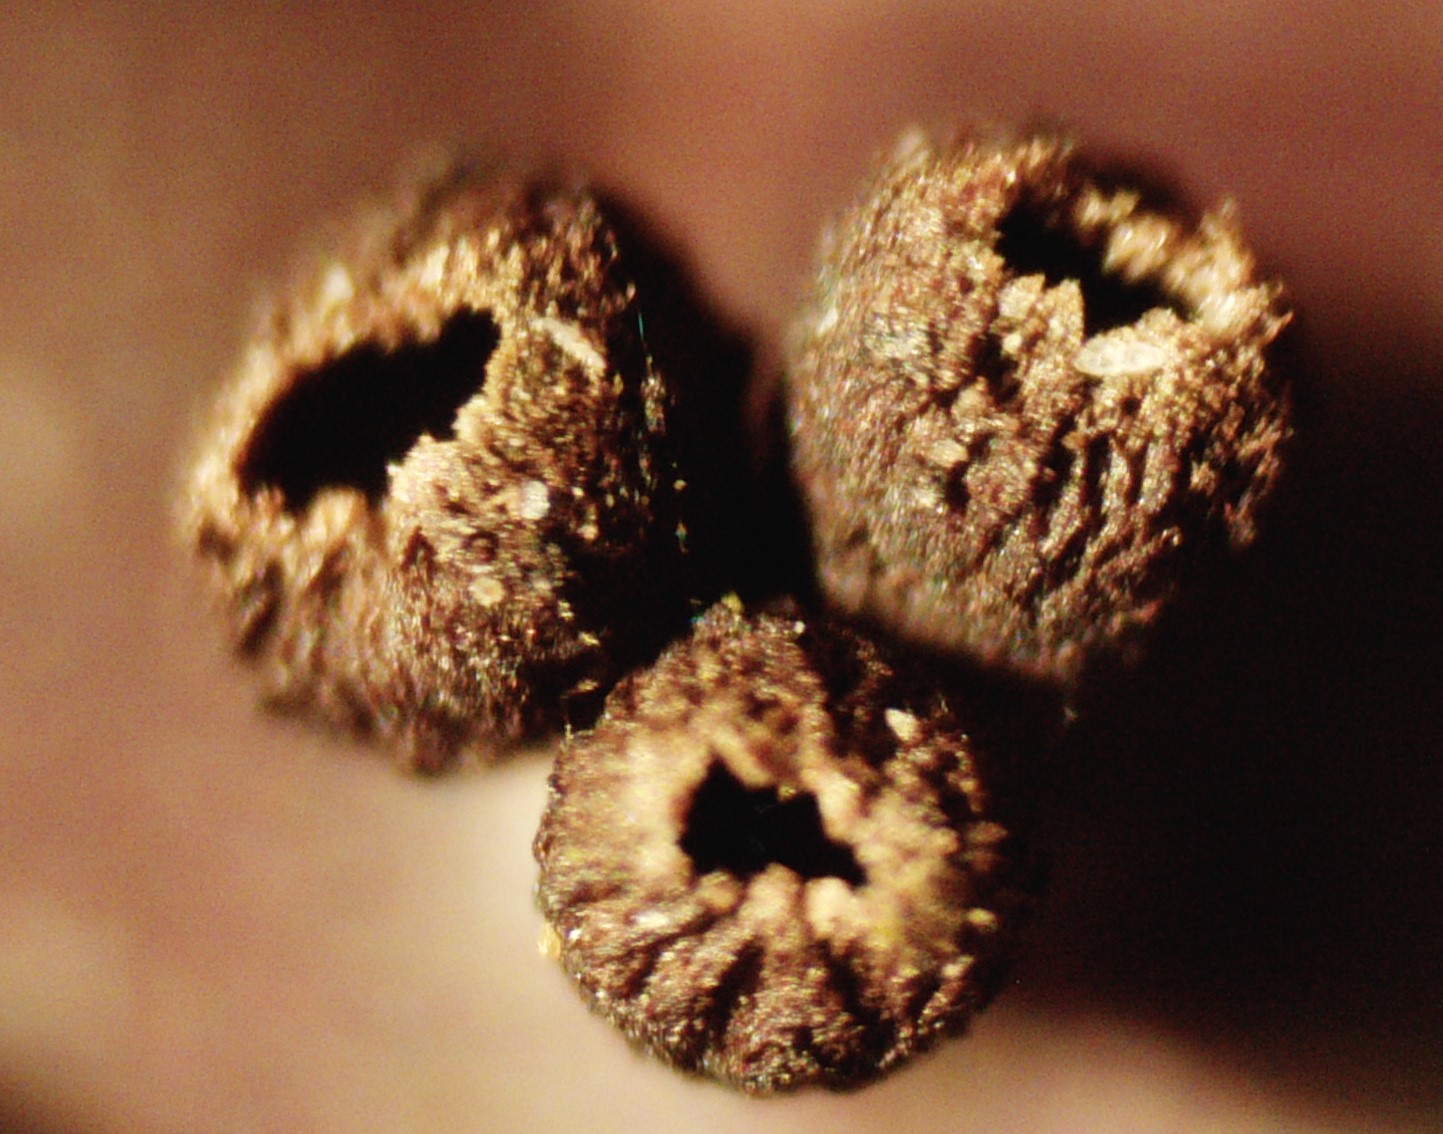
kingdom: Fungi
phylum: Ascomycota
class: Leotiomycetes
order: Helotiales
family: Godroniaceae
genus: Godronia
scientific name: Godronia uberiformis
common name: solbær-urneskive
